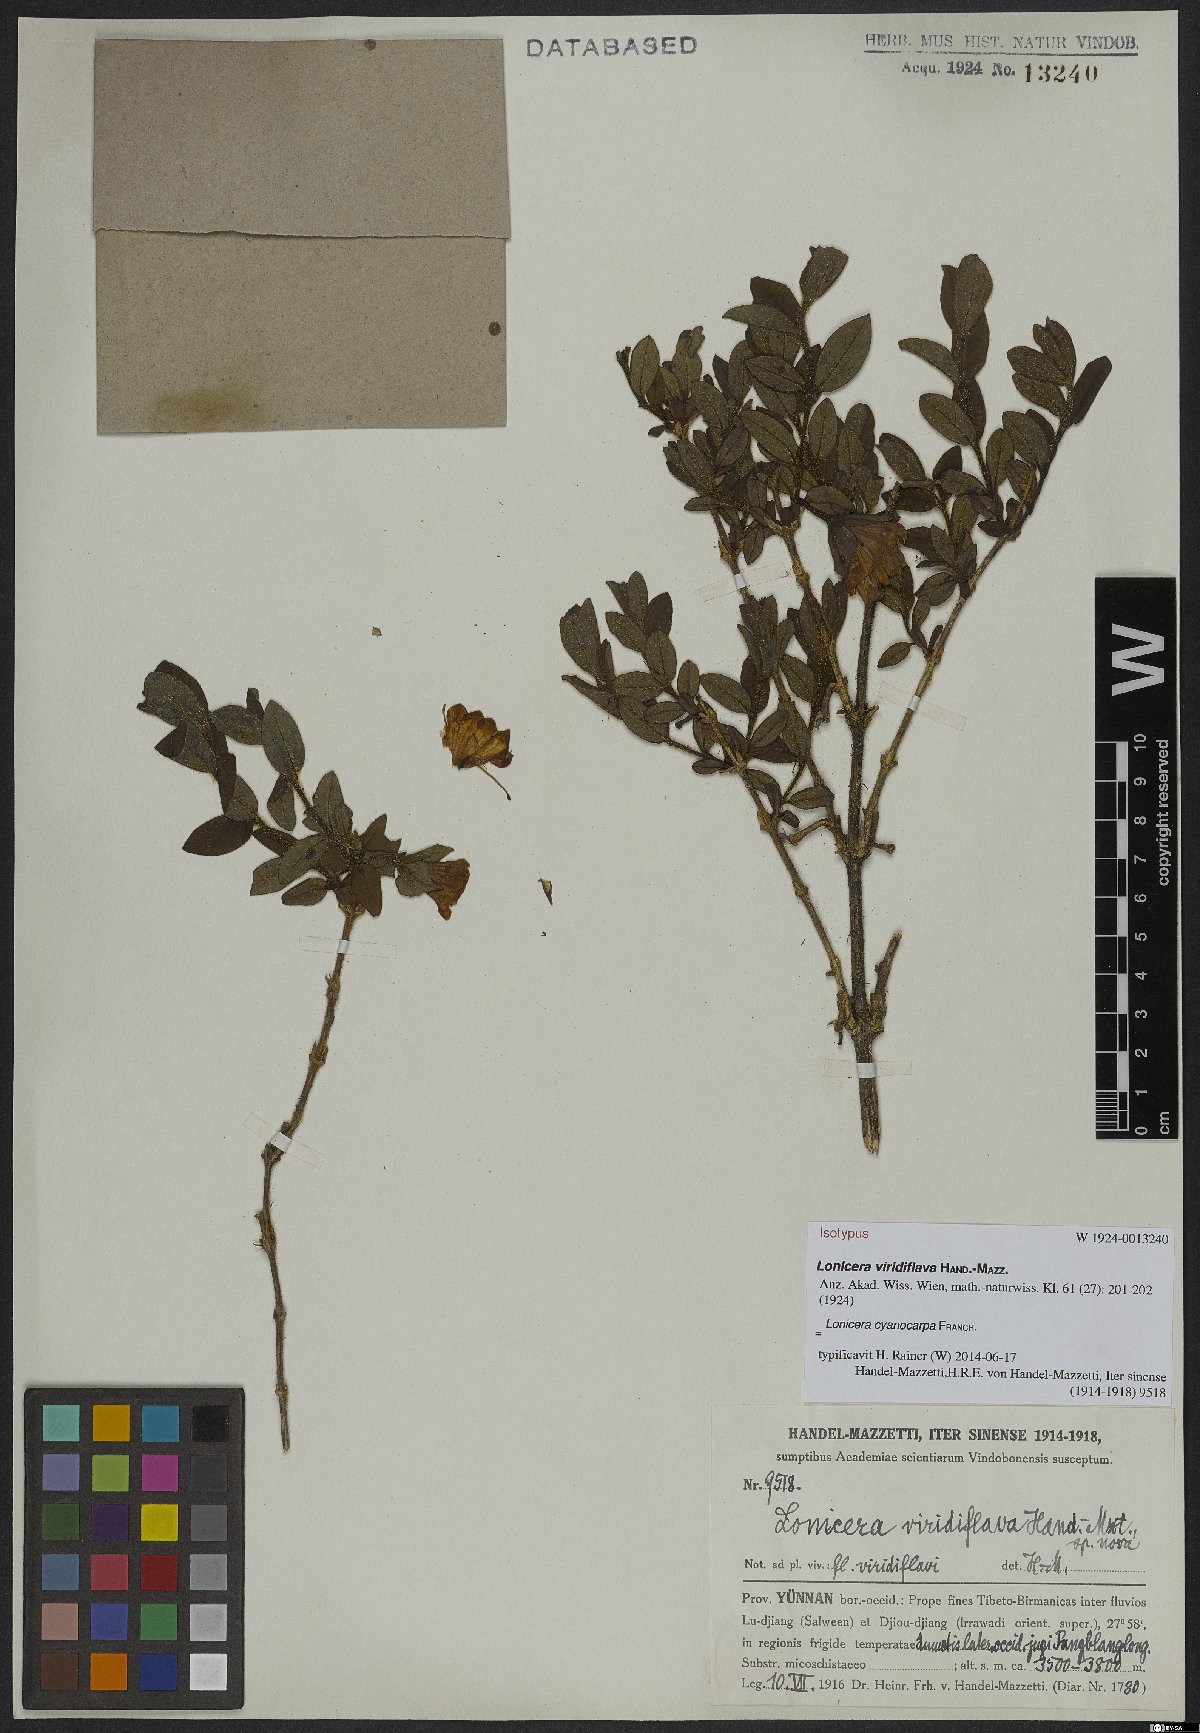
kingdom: Plantae
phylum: Tracheophyta
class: Magnoliopsida
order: Dipsacales
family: Caprifoliaceae
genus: Lonicera
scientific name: Lonicera cyanocarpa
